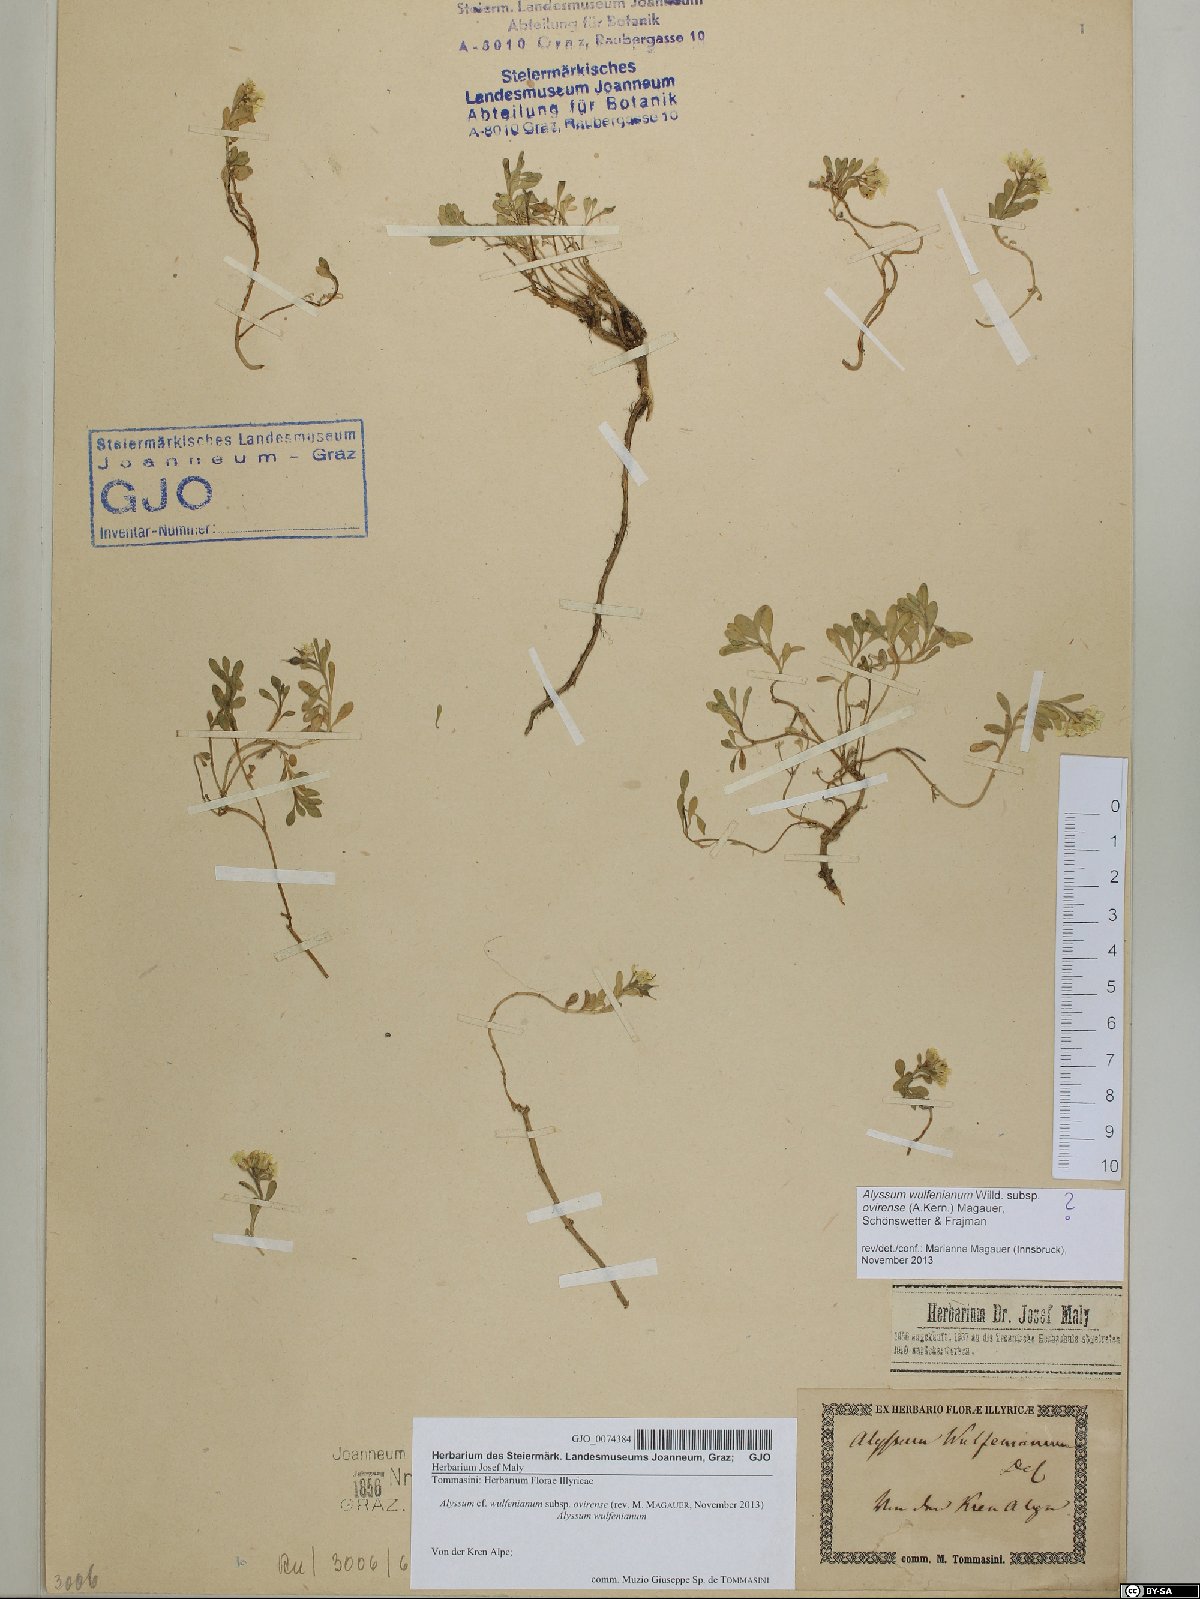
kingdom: Plantae
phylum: Tracheophyta
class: Magnoliopsida
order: Brassicales
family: Brassicaceae
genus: Alyssum
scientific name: Alyssum wulfenianum
